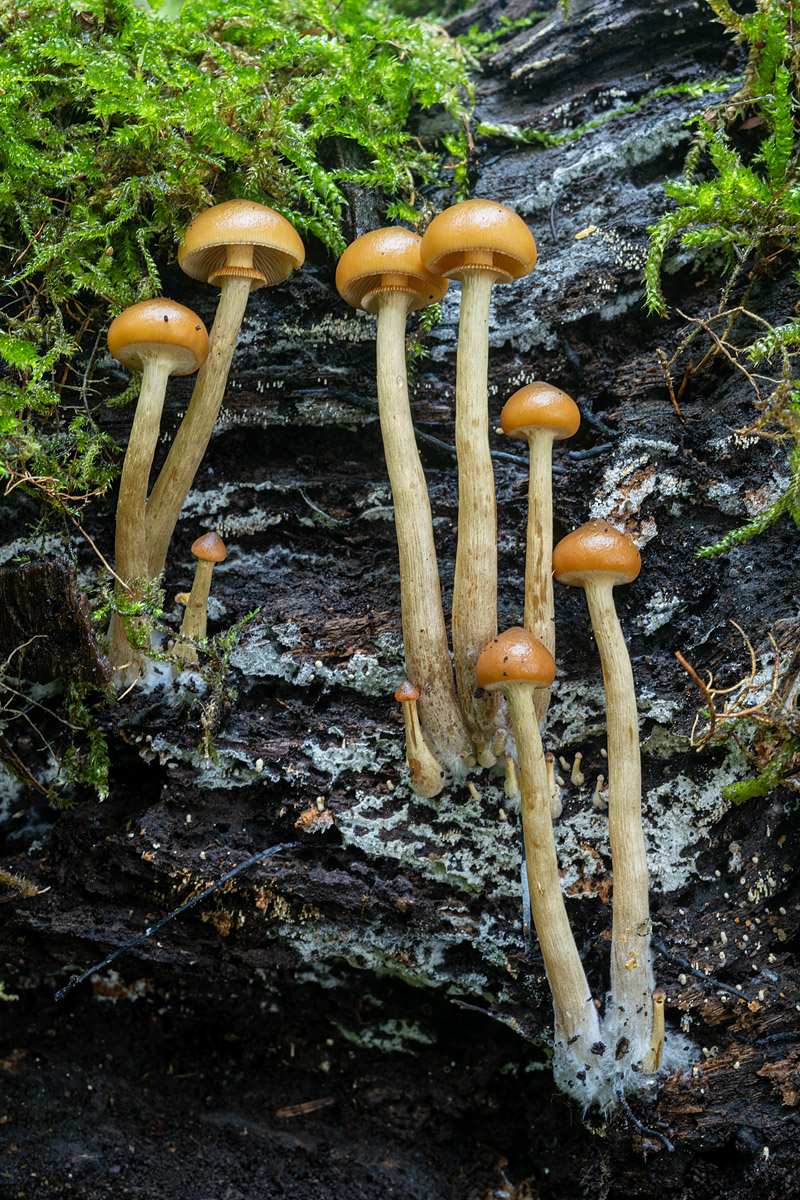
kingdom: Fungi
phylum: Basidiomycota
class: Agaricomycetes
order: Agaricales
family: Hymenogastraceae
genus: Galerina
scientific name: Galerina marginata
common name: randbæltet hjelmhat
